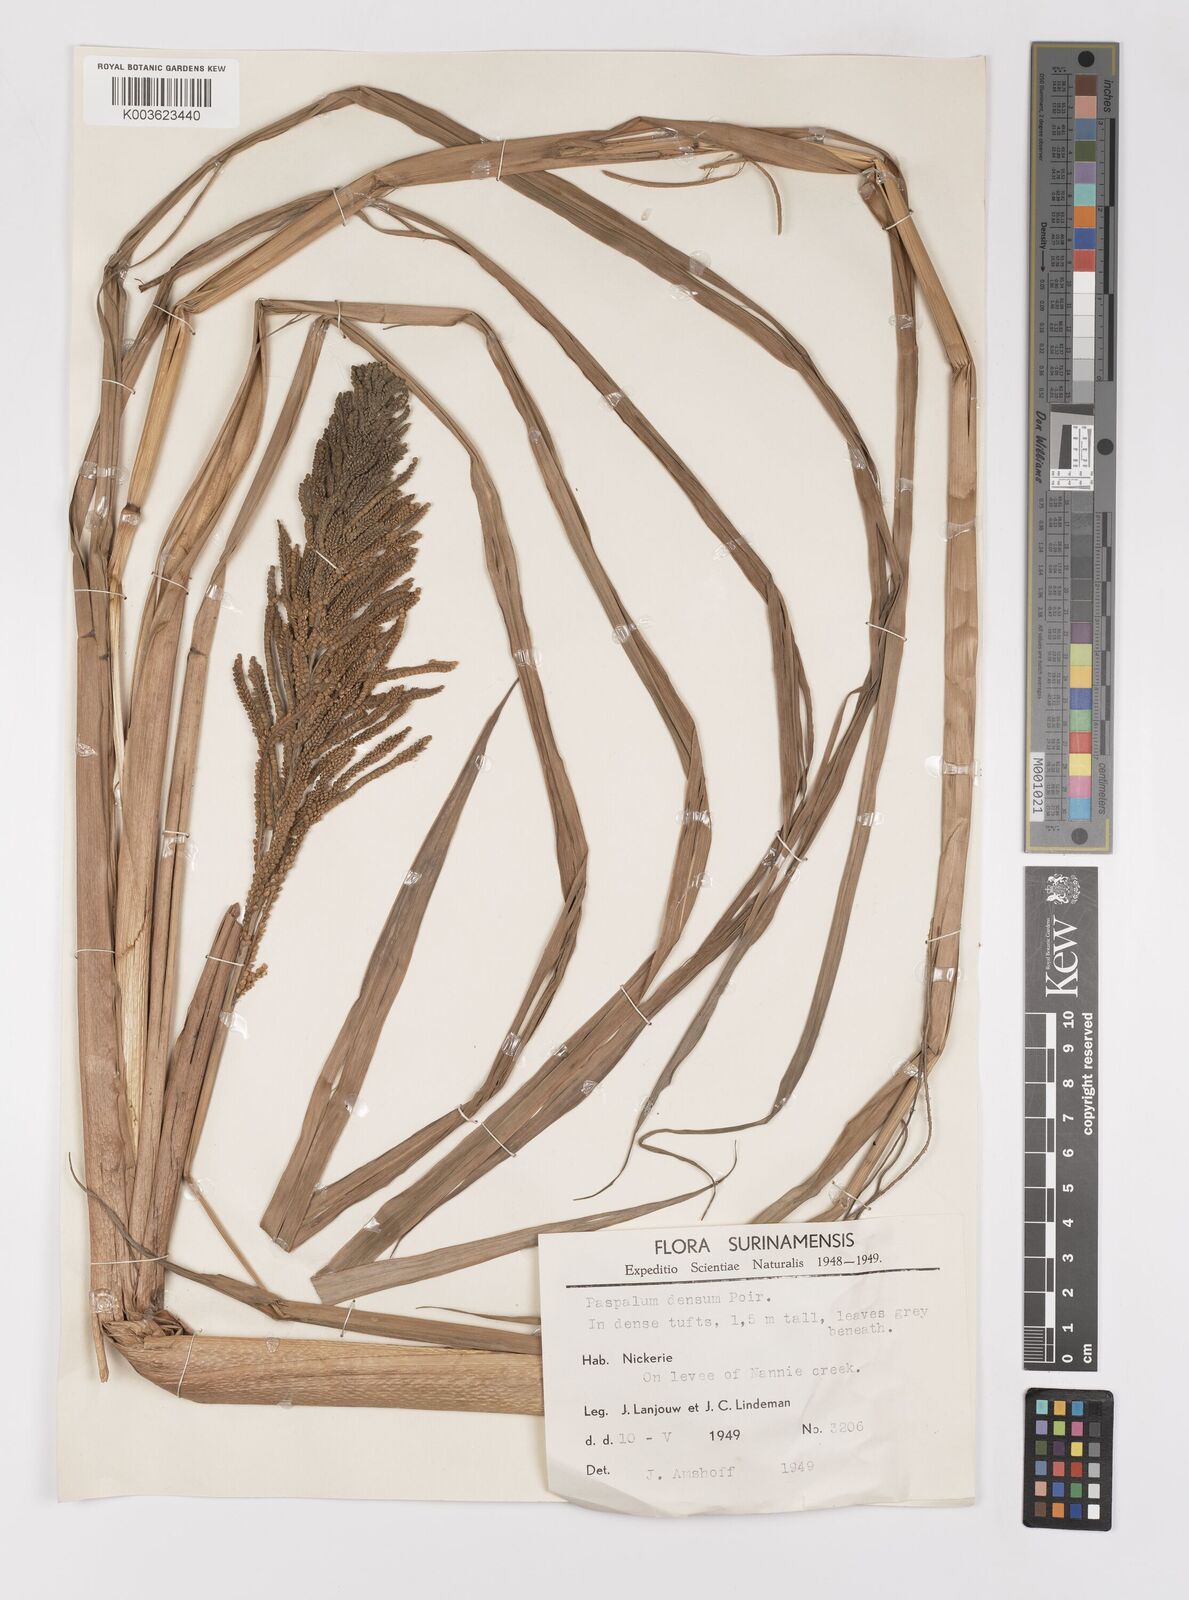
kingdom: Plantae
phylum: Tracheophyta
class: Liliopsida
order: Poales
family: Poaceae
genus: Paspalum
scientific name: Paspalum densum
